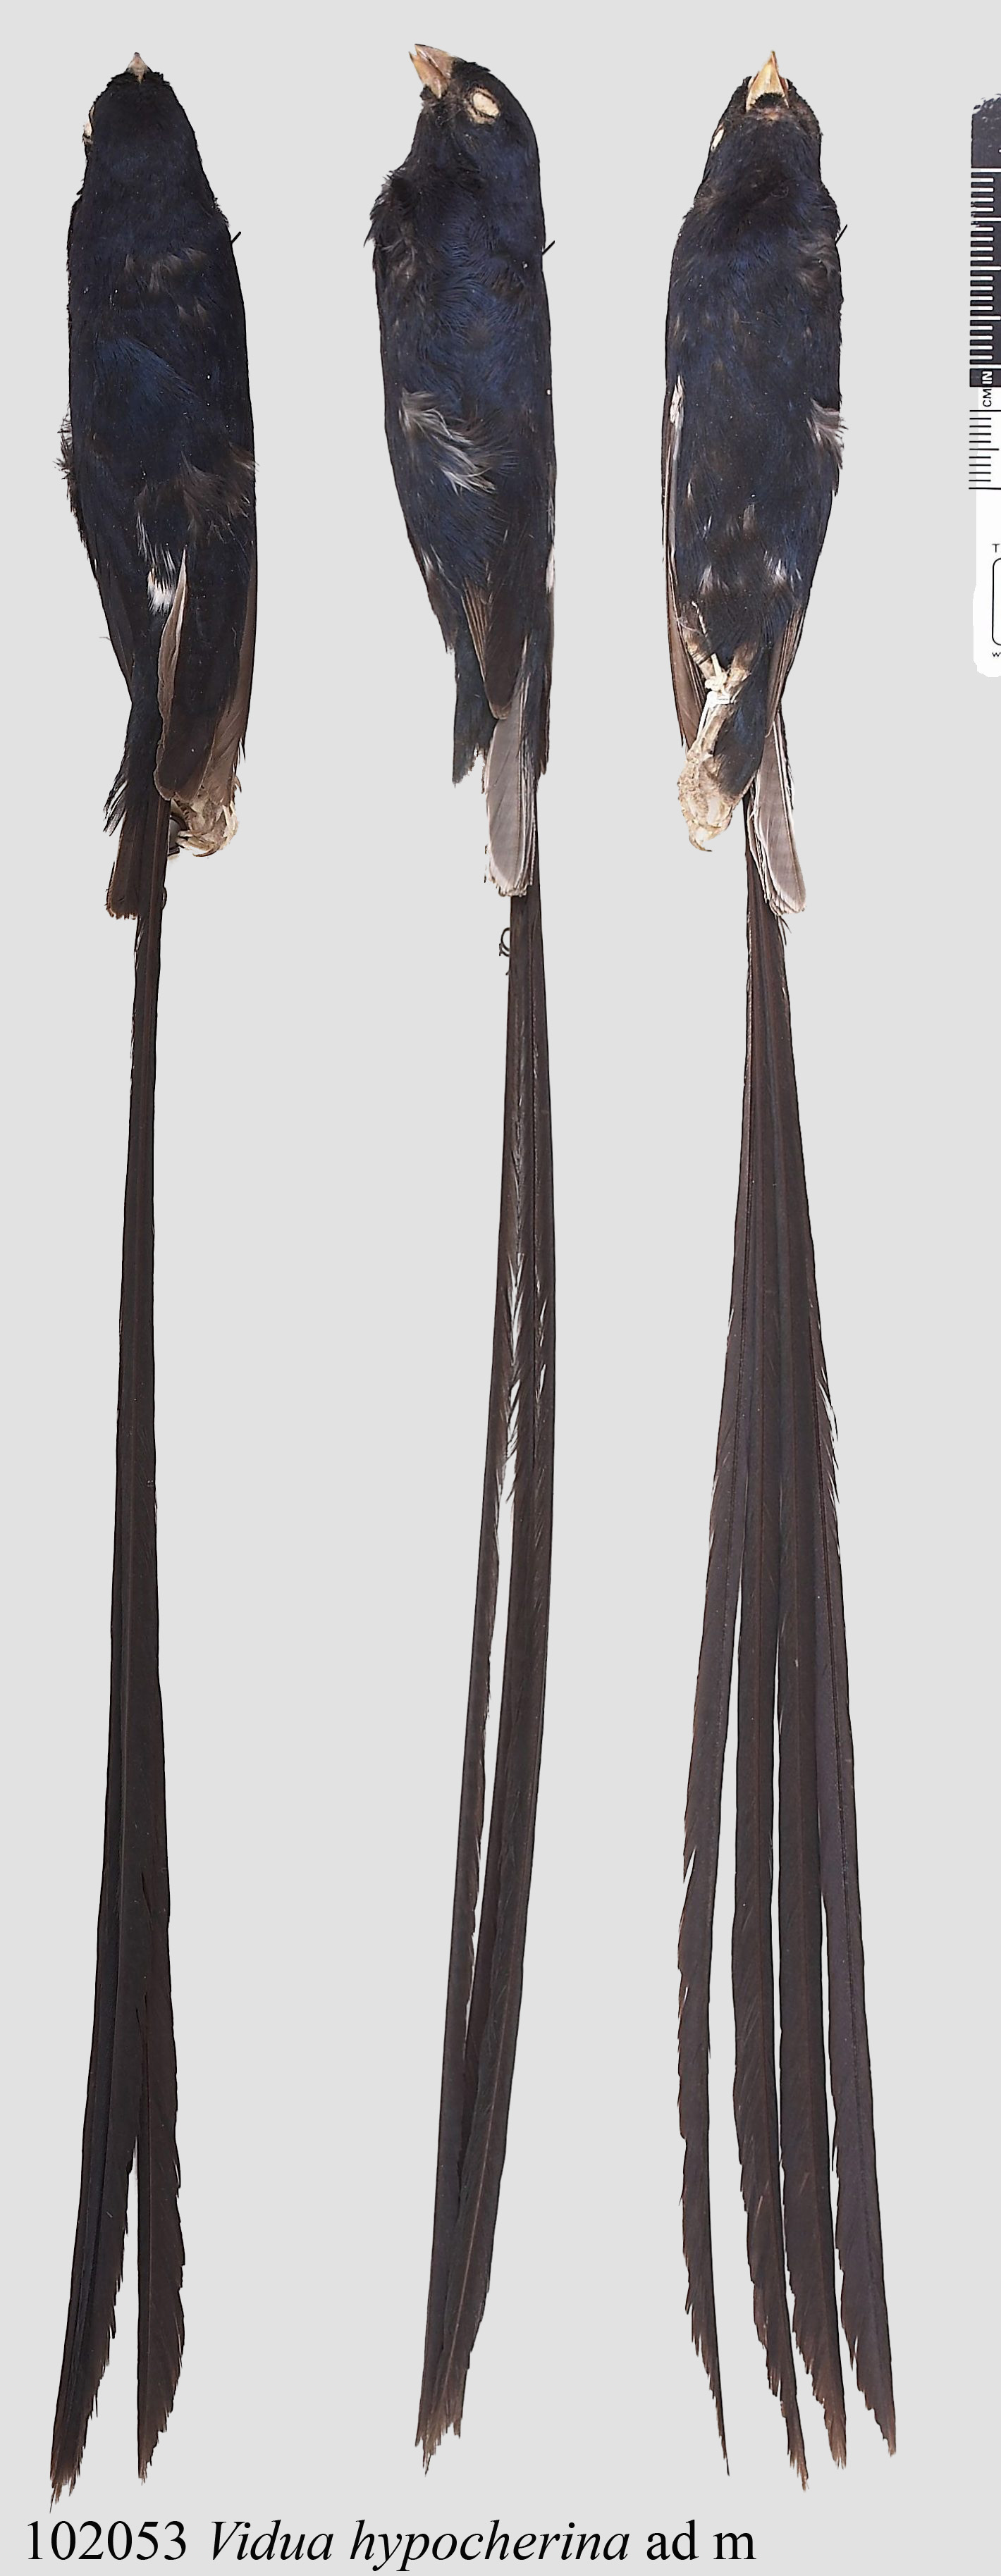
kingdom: Animalia
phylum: Chordata
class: Aves
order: Passeriformes
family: Viduidae
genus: Vidua
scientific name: Vidua hypocherina
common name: Steel-blue whydah
